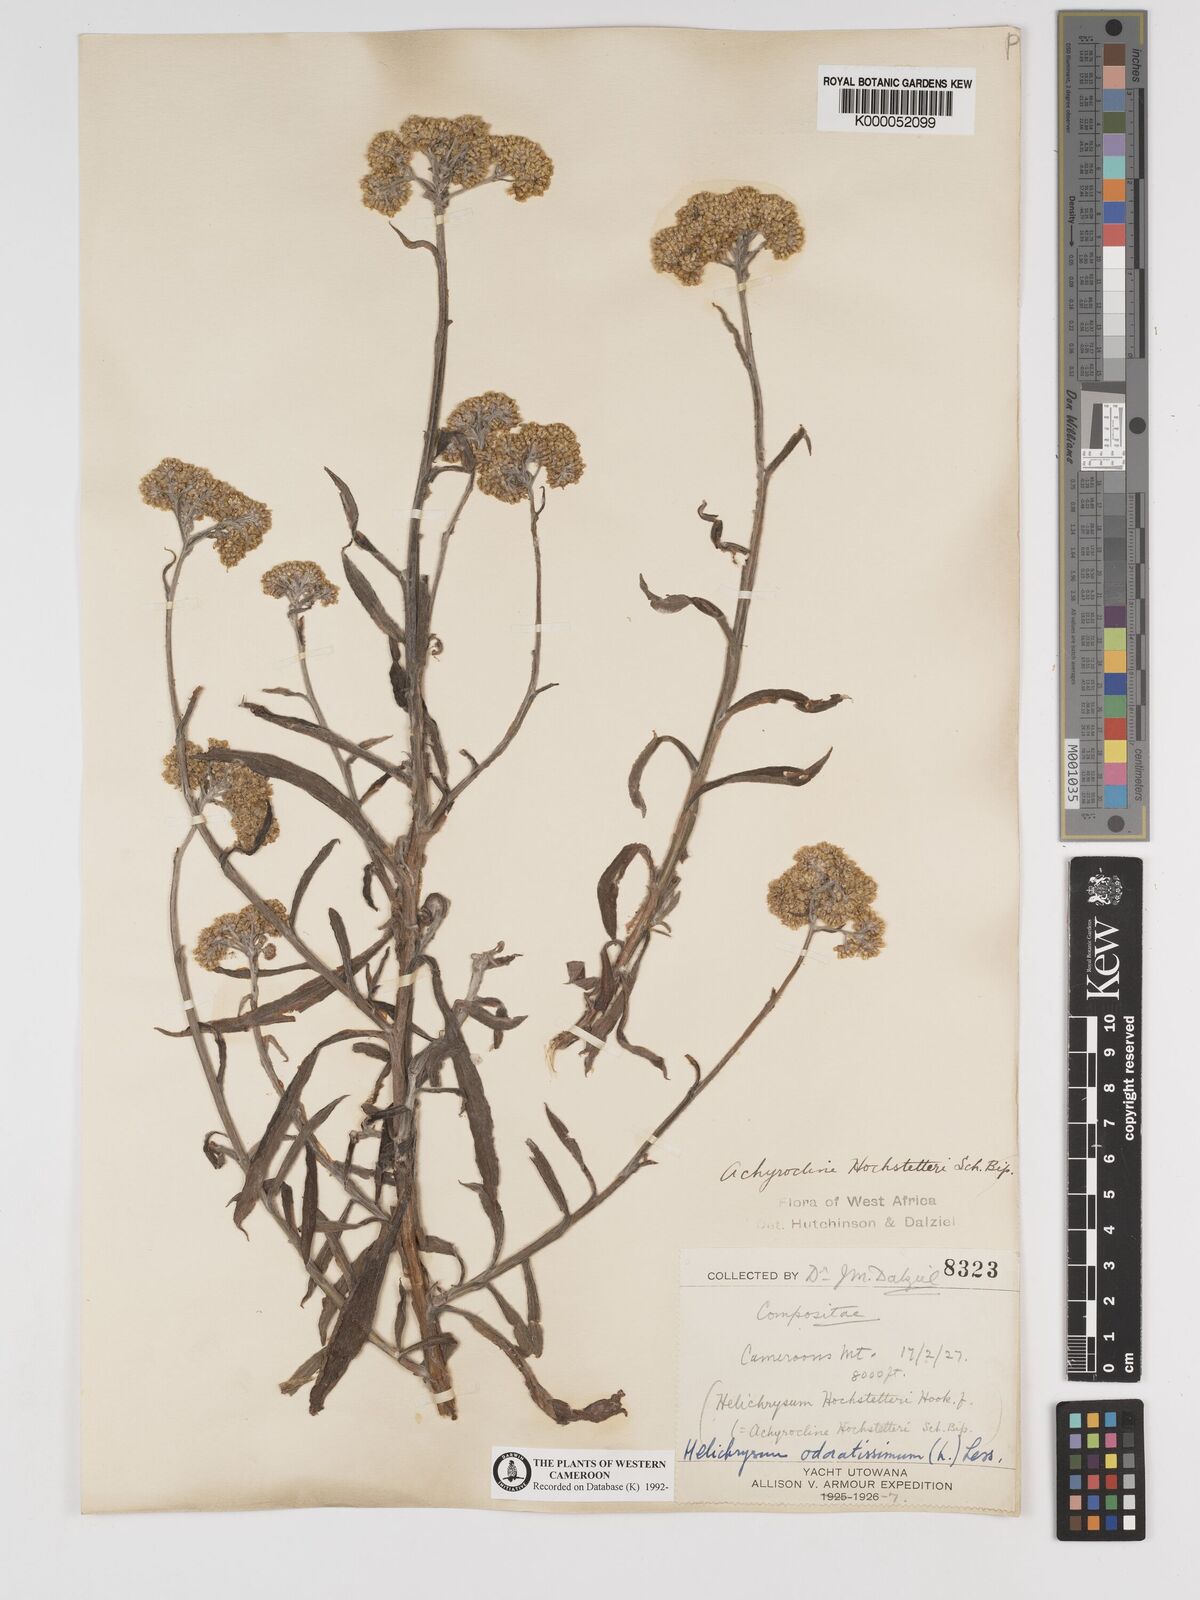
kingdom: Plantae
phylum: Tracheophyta
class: Magnoliopsida
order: Asterales
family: Asteraceae
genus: Helichrysum
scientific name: Helichrysum odoratissimum
